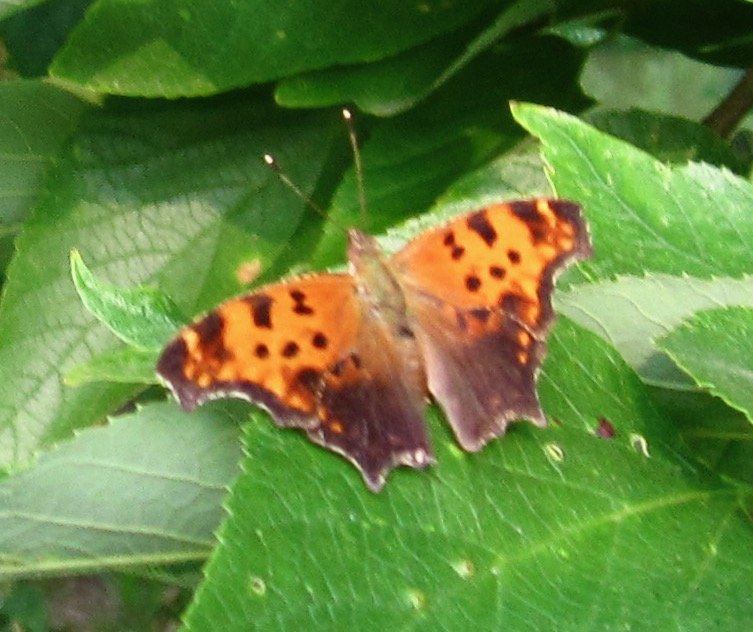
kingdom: Animalia
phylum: Arthropoda
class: Insecta
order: Lepidoptera
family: Nymphalidae
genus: Polygonia
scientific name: Polygonia comma
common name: Eastern Comma
